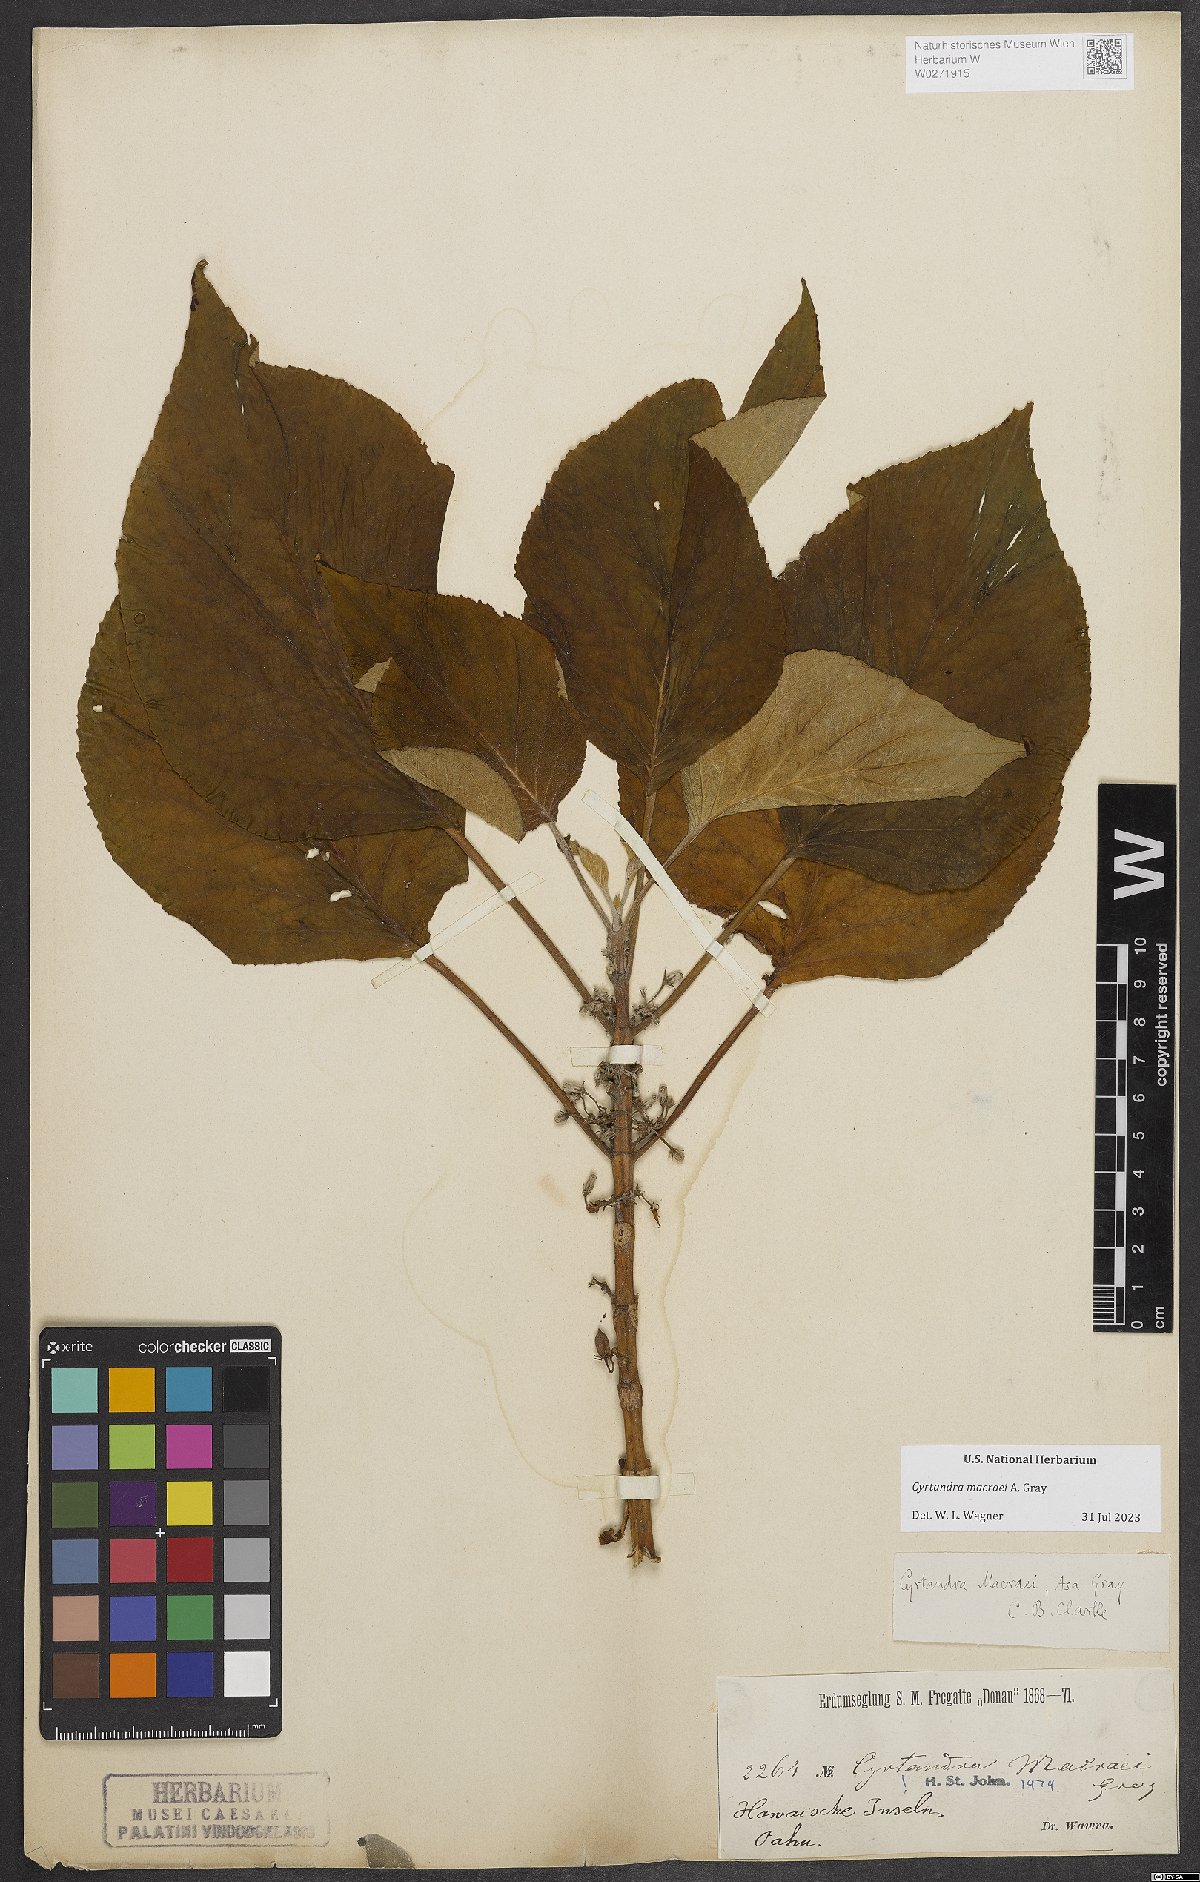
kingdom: Plantae
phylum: Tracheophyta
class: Magnoliopsida
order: Lamiales
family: Gesneriaceae
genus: Cyrtandra
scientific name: Cyrtandra macraei
